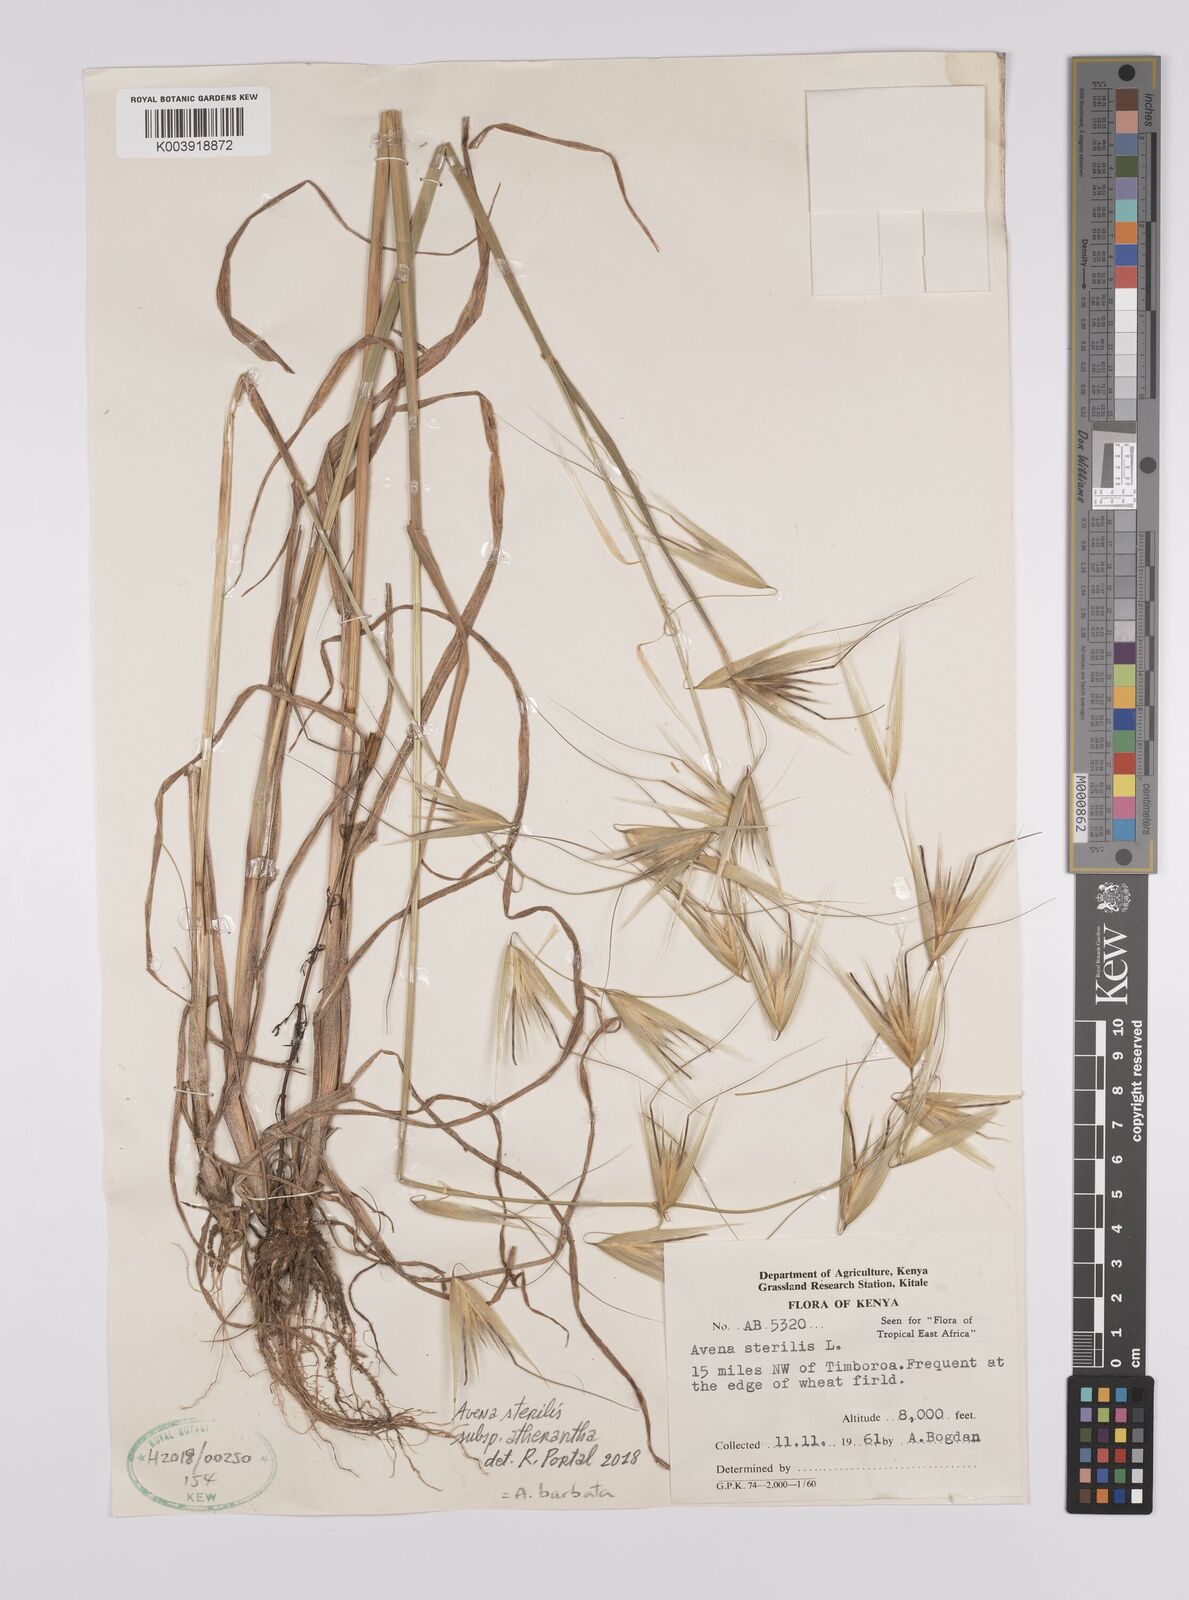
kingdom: Plantae
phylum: Tracheophyta
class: Liliopsida
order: Poales
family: Poaceae
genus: Avena
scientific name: Avena
